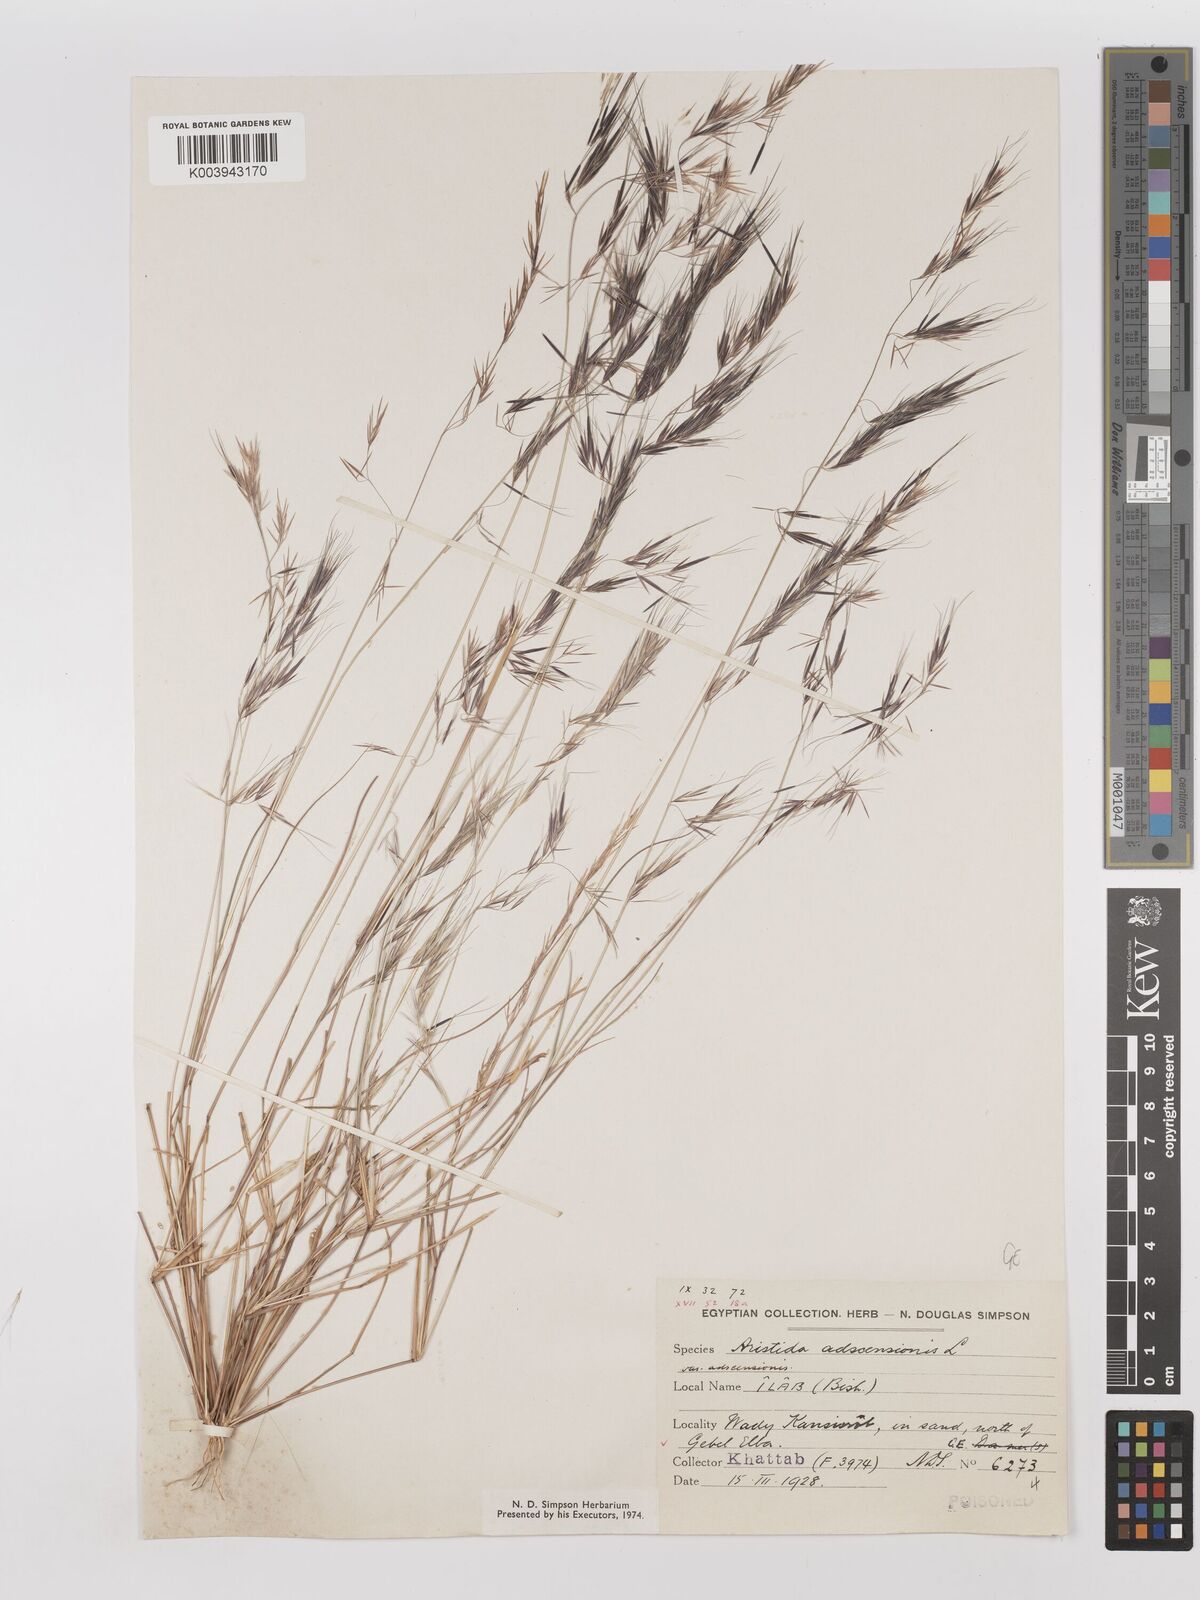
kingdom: Plantae
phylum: Tracheophyta
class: Liliopsida
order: Poales
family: Poaceae
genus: Aristida
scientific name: Aristida adscensionis
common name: Sixweeks threeawn
